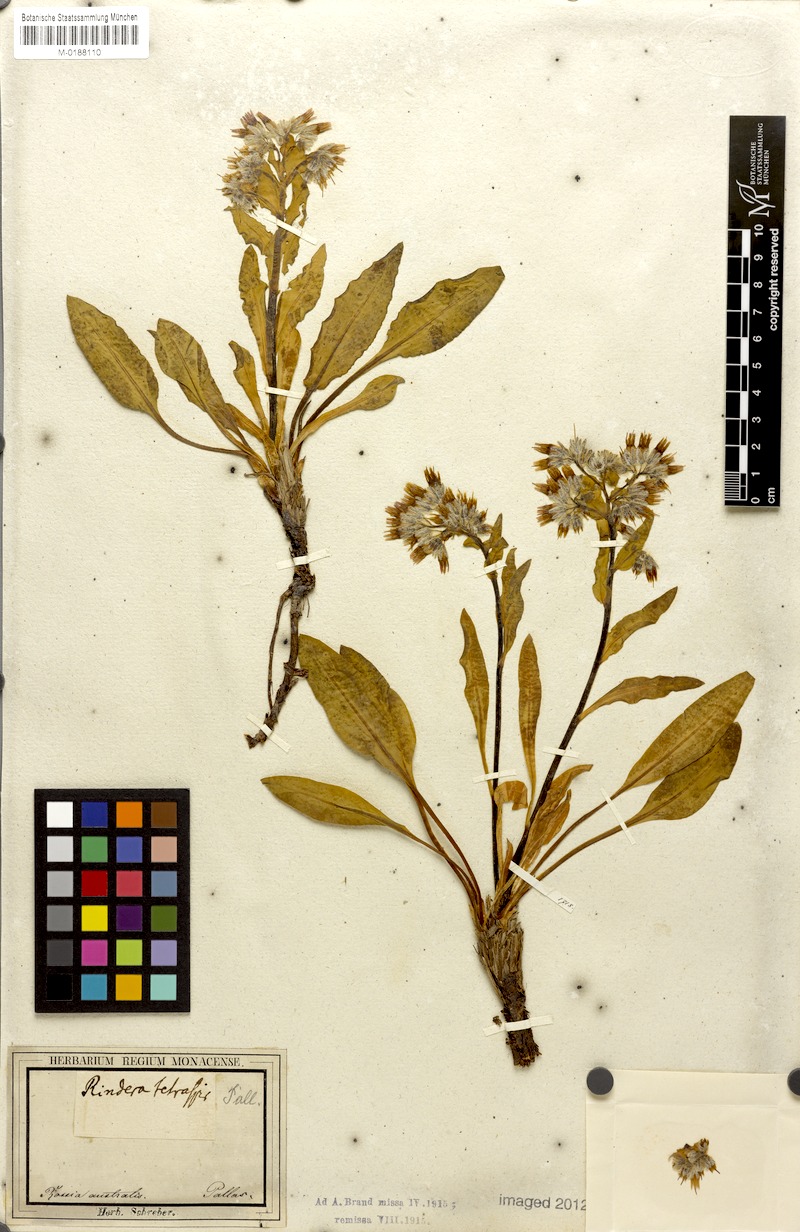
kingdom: Plantae
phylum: Tracheophyta
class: Magnoliopsida
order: Boraginales
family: Boraginaceae
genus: Rindera
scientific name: Rindera tetraspis
